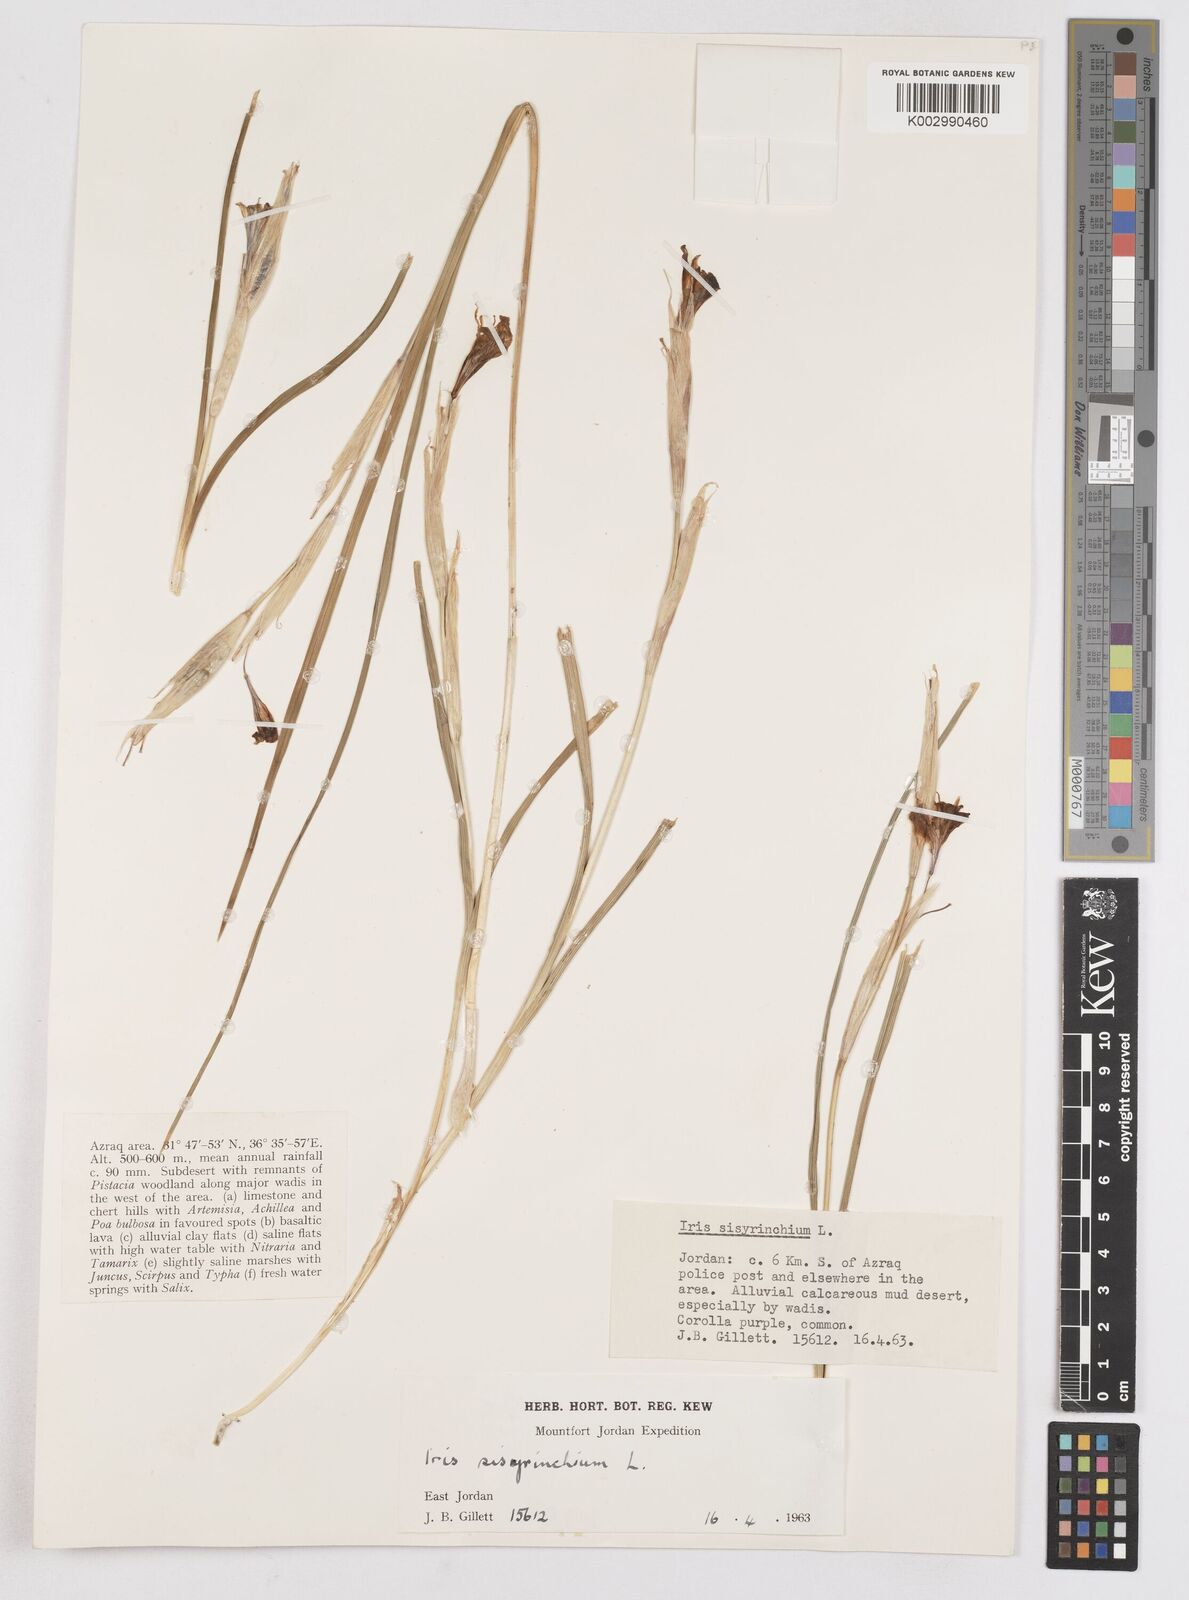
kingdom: Plantae
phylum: Tracheophyta
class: Liliopsida
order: Asparagales
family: Iridaceae
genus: Moraea
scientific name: Moraea sisyrinchium
